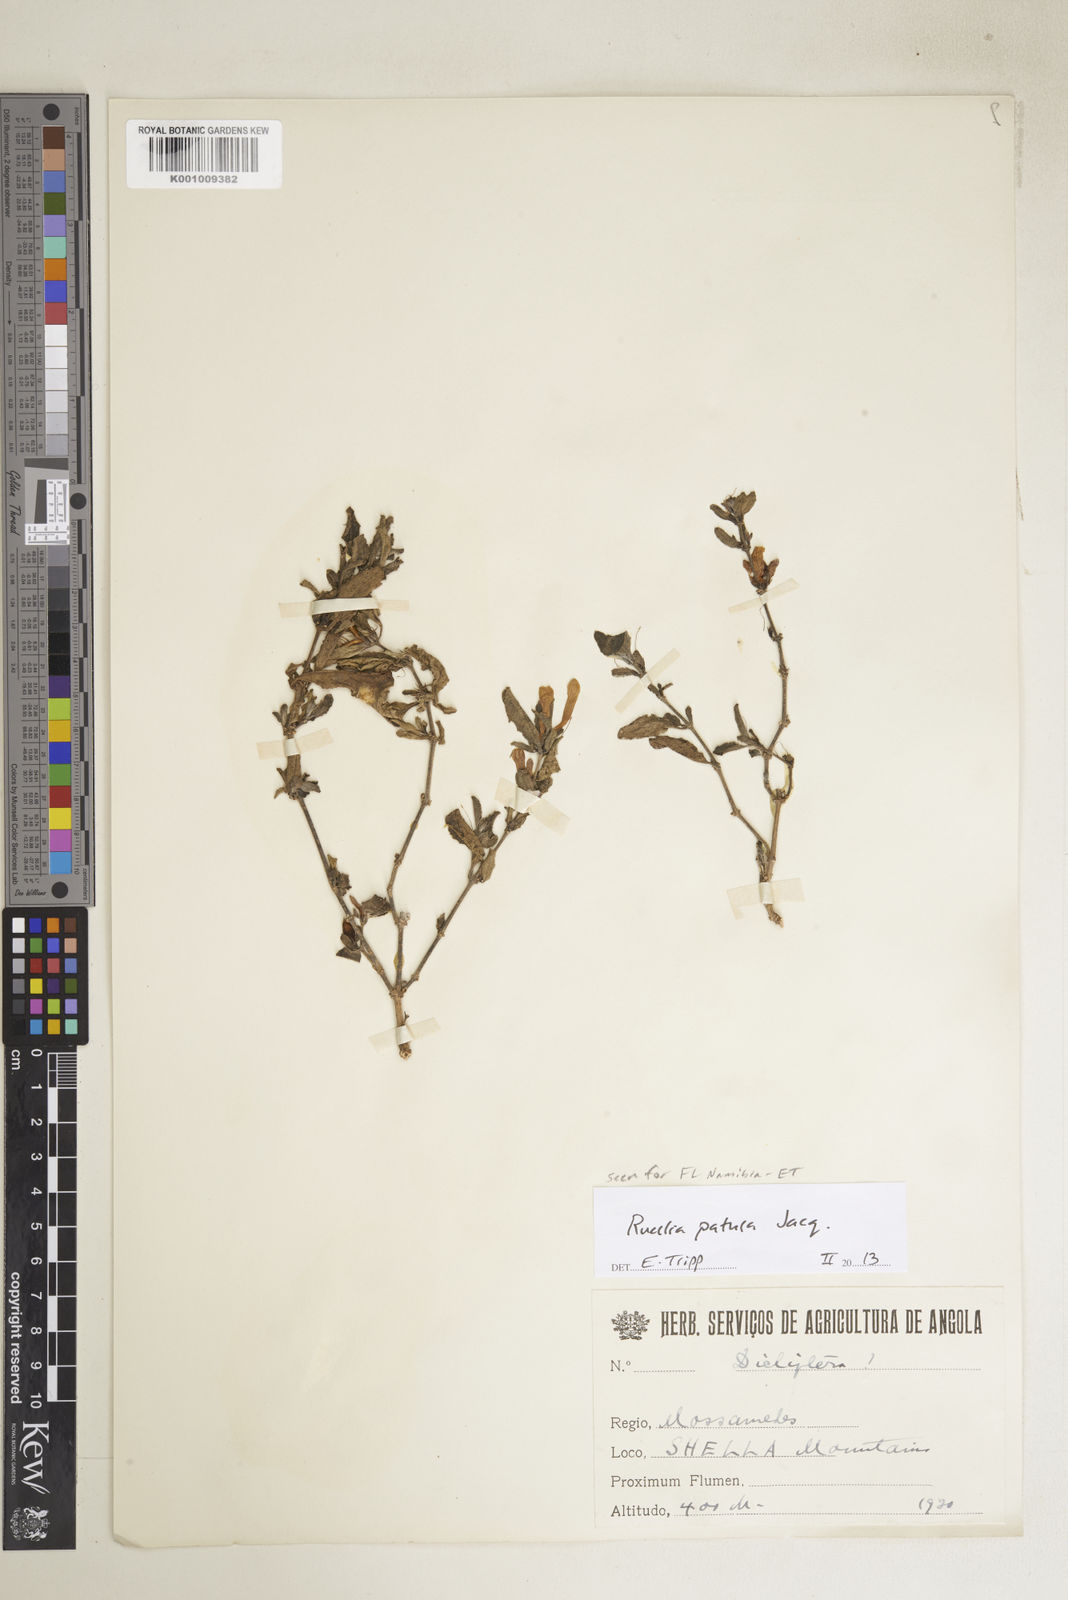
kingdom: Plantae
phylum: Tracheophyta
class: Magnoliopsida
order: Lamiales
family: Acanthaceae
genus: Ruellia
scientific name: Ruellia patula
